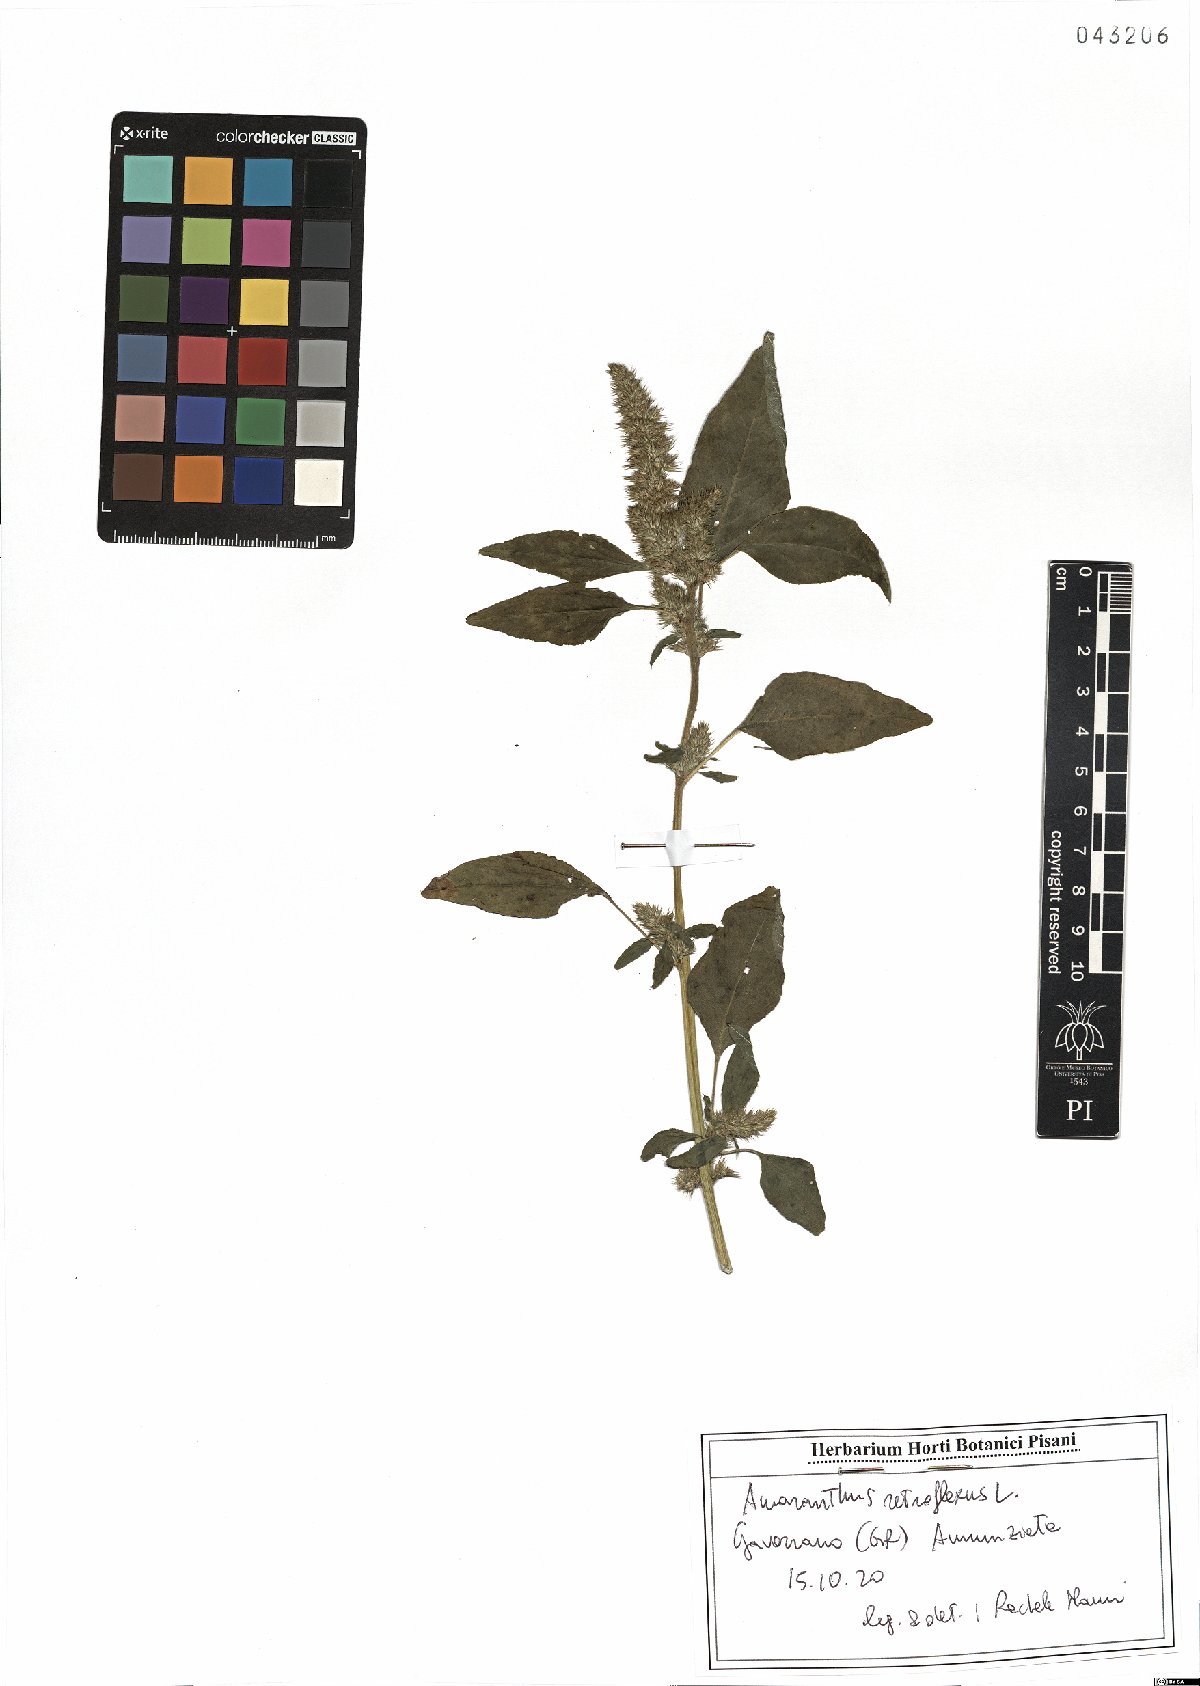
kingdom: Plantae
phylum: Tracheophyta
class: Magnoliopsida
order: Caryophyllales
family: Amaranthaceae
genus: Amaranthus
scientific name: Amaranthus retroflexus
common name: Redroot amaranth
